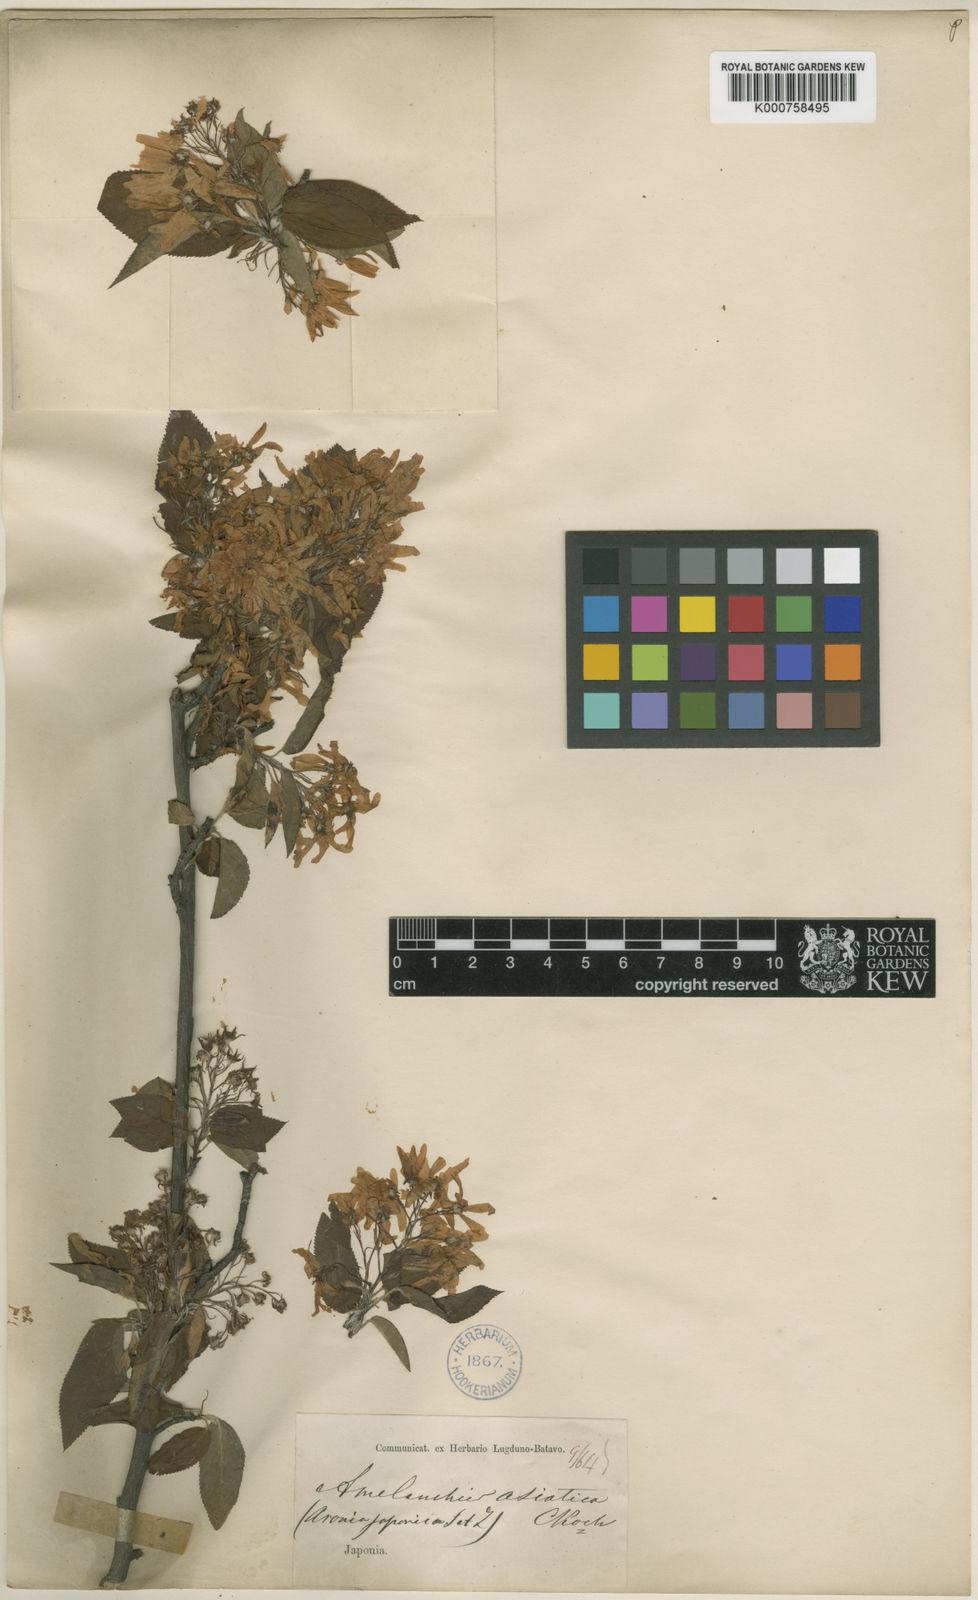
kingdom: Plantae
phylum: Tracheophyta
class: Magnoliopsida
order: Rosales
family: Rosaceae
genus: Amelanchier
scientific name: Amelanchier
